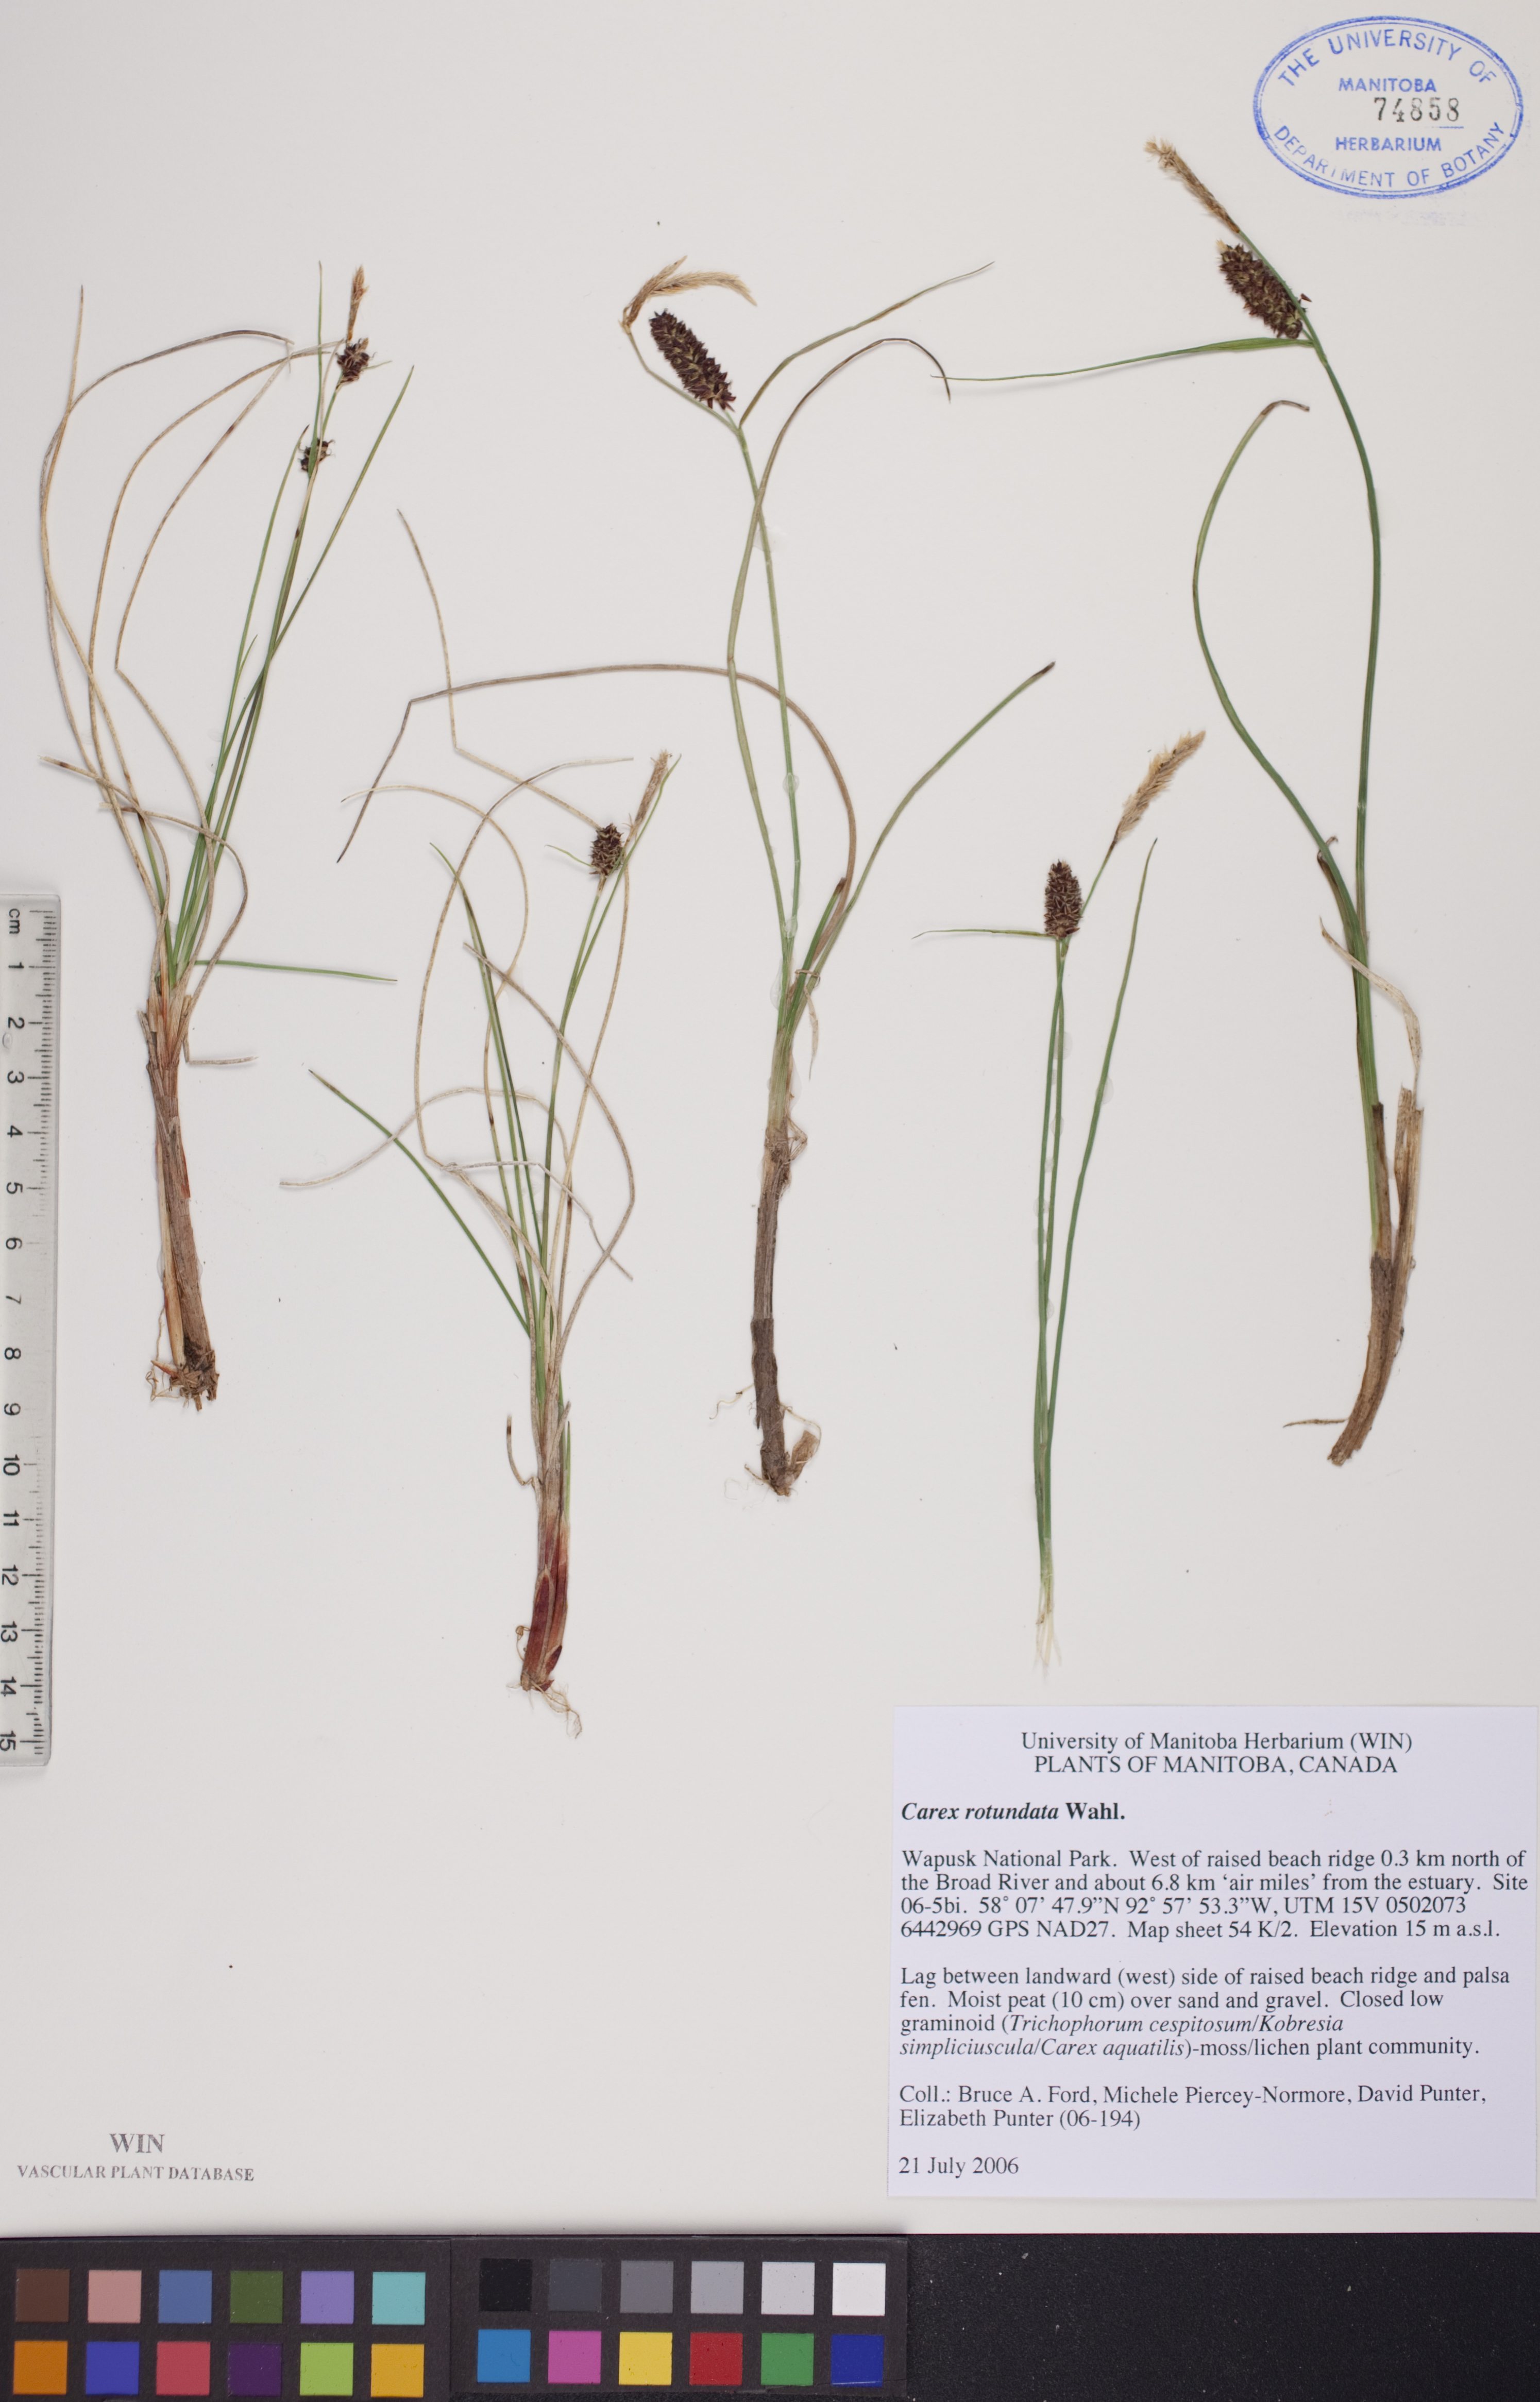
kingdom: Plantae
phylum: Tracheophyta
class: Liliopsida
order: Poales
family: Cyperaceae
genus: Carex
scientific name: Carex rotundata
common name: Round-fruited sedge
